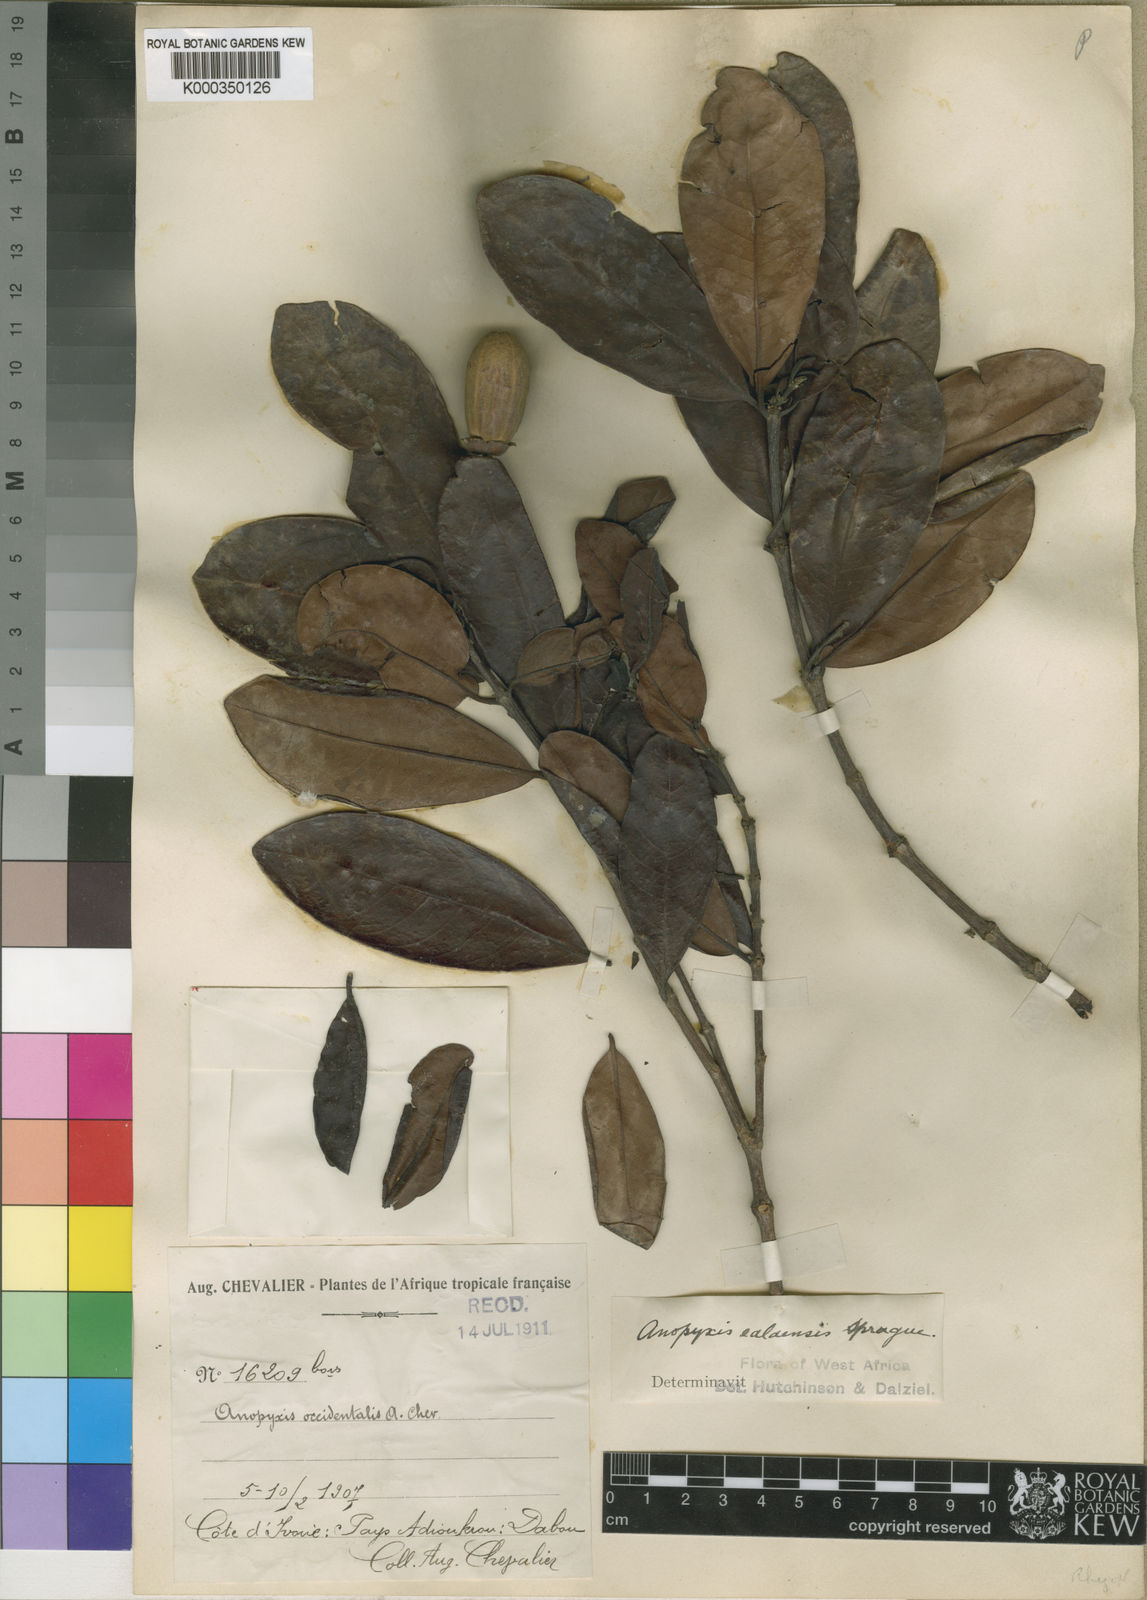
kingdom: Plantae
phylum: Tracheophyta
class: Magnoliopsida
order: Malpighiales
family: Rhizophoraceae
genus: Anopyxis
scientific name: Anopyxis klaineana
